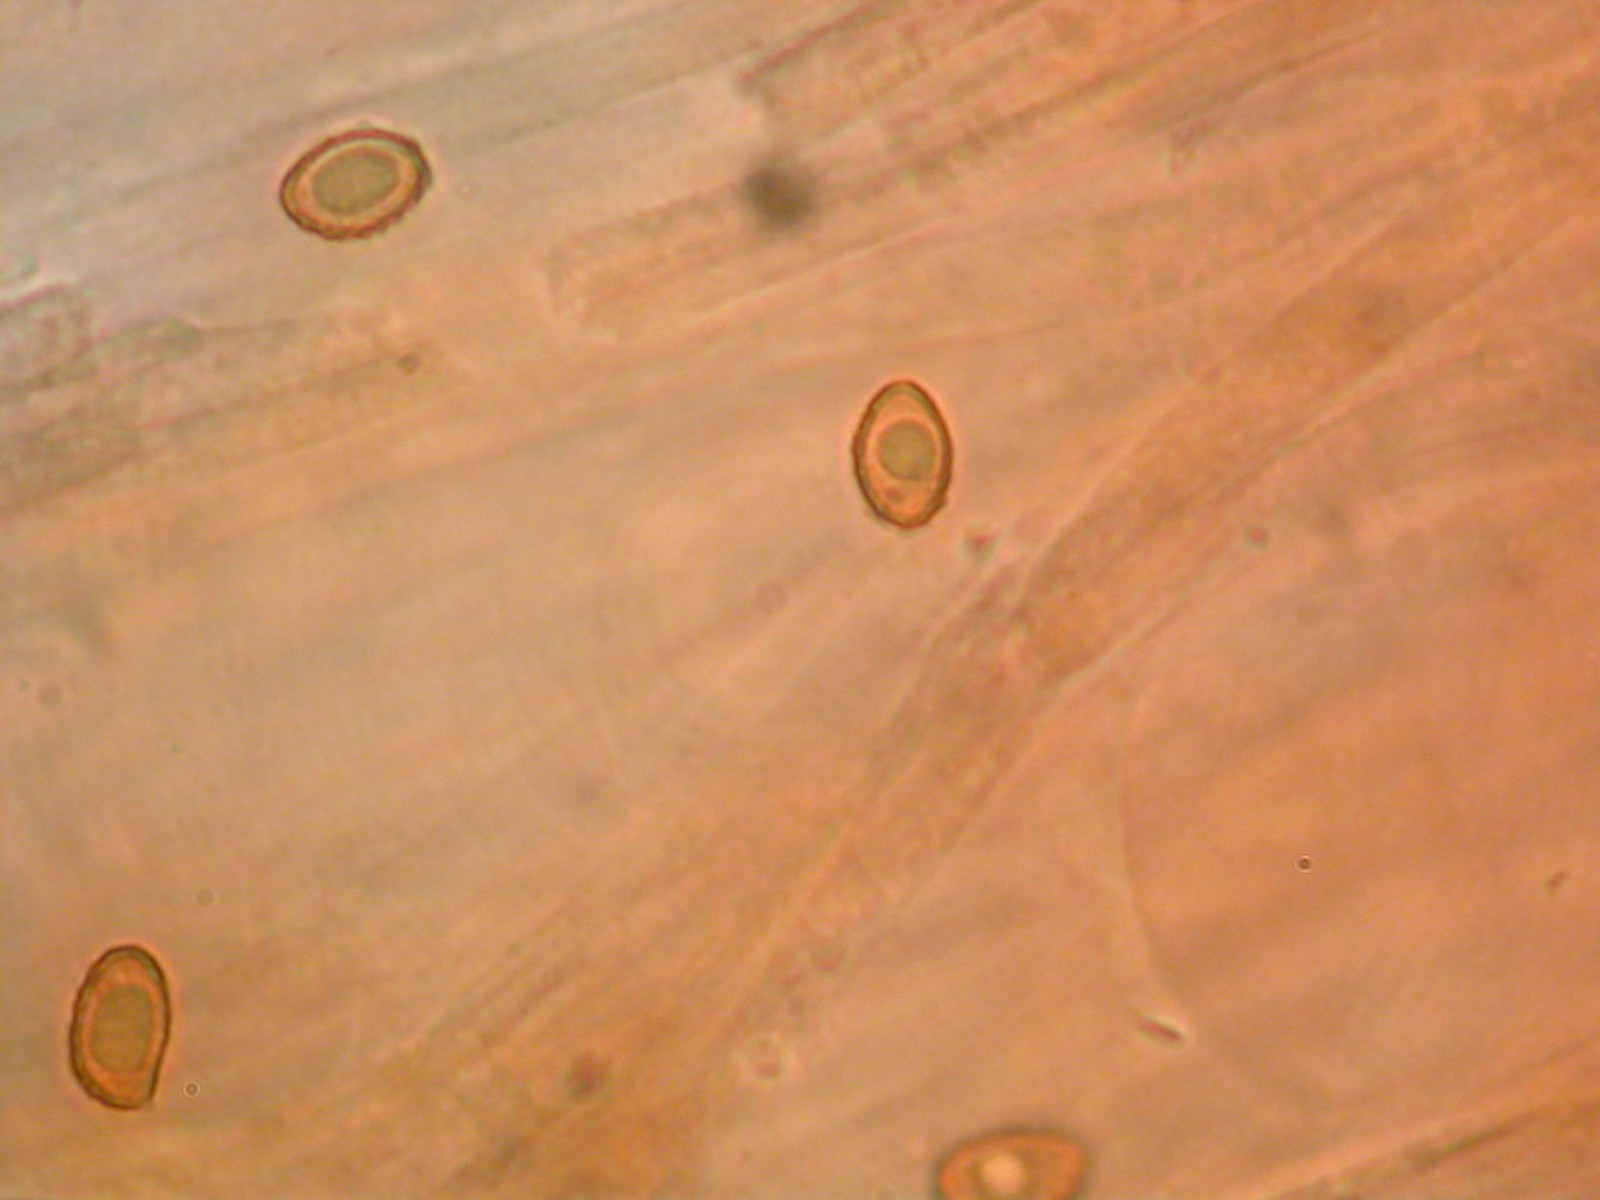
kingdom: Fungi
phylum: Basidiomycota
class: Agaricomycetes
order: Agaricales
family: Cortinariaceae
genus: Cortinarius
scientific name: Cortinarius glabrellus
